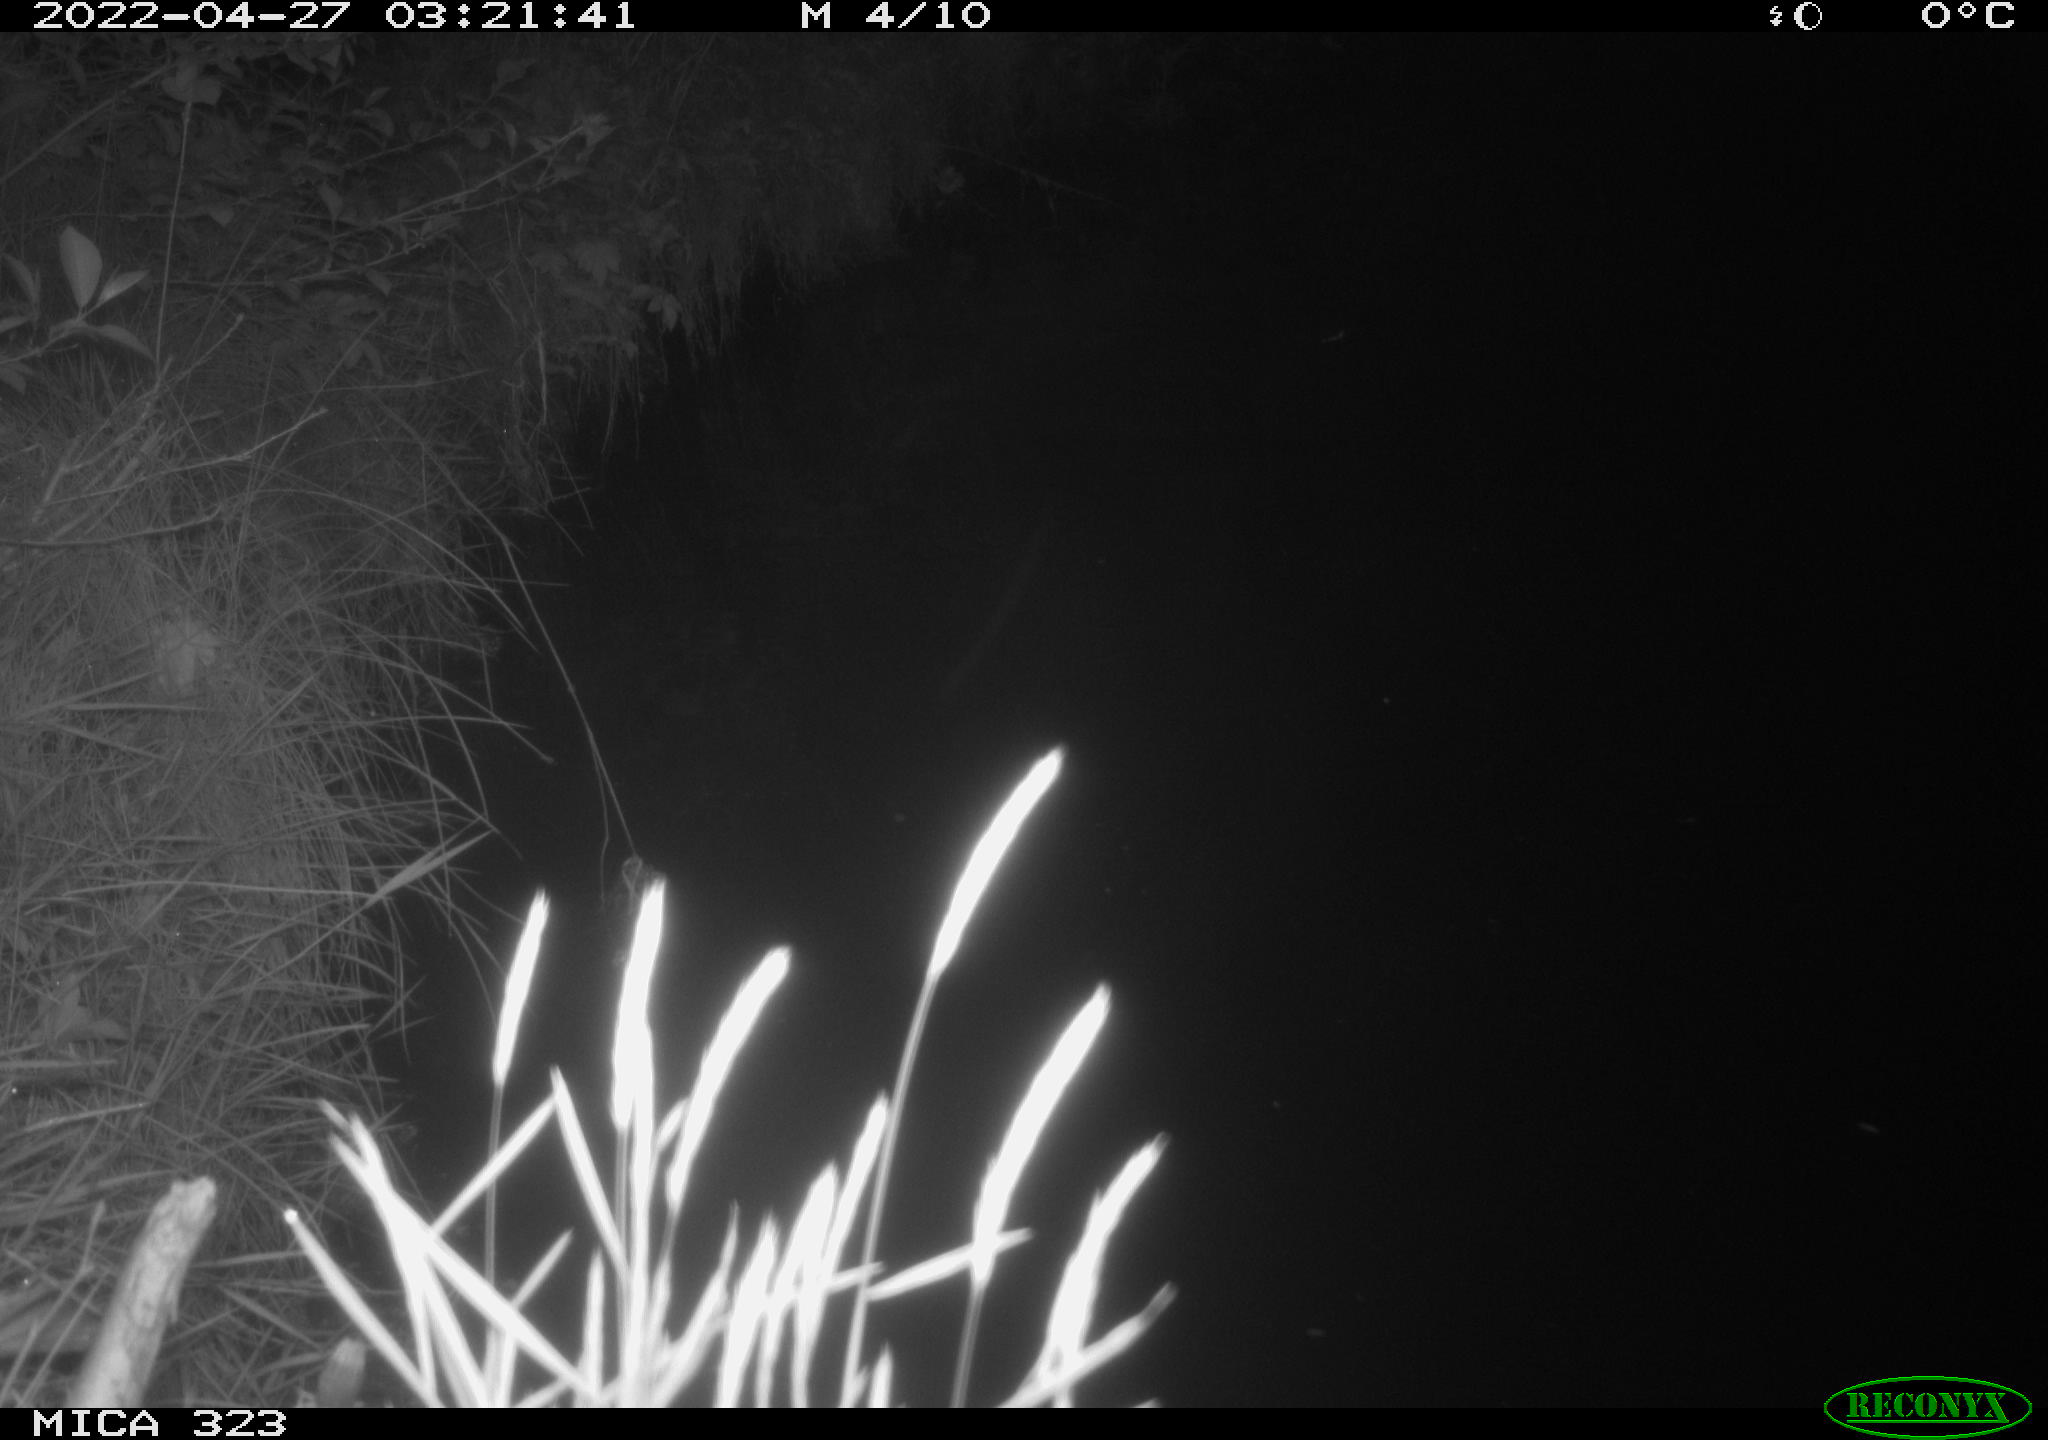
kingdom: Animalia
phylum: Chordata
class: Aves
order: Gruiformes
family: Rallidae
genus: Gallinula
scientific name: Gallinula chloropus
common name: Common moorhen
